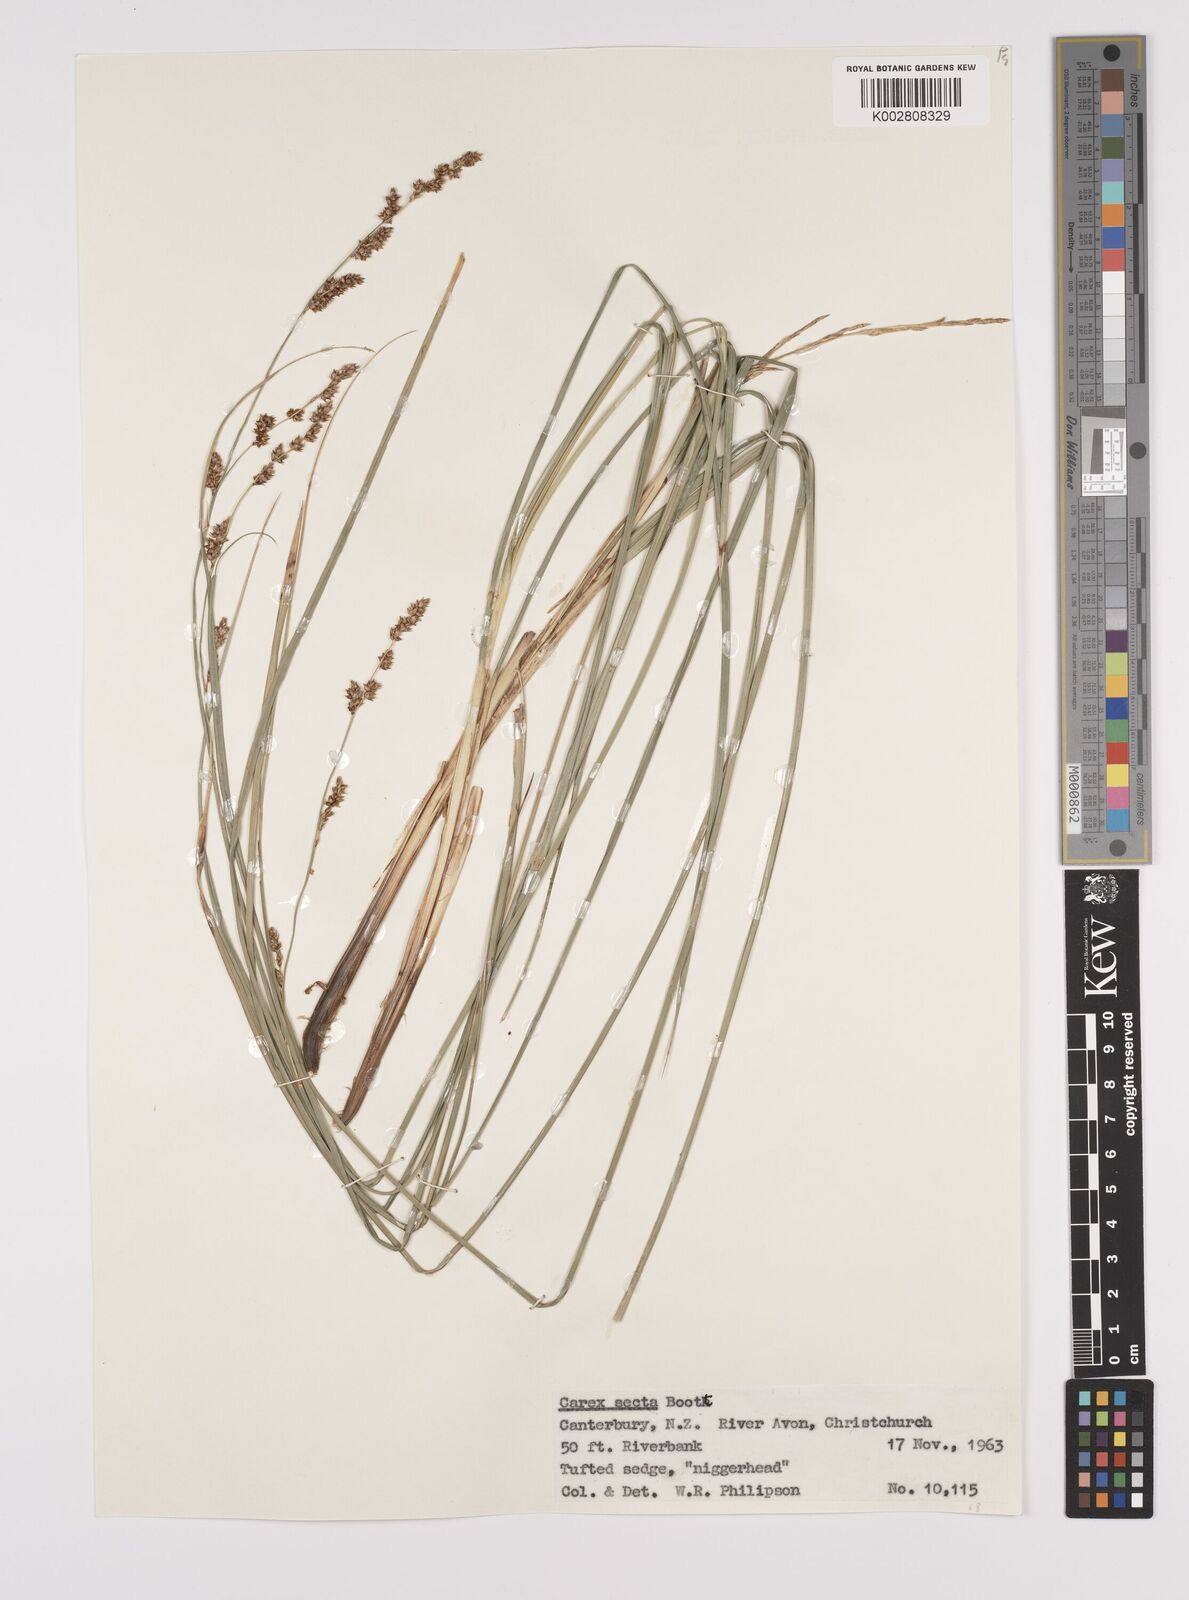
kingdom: Plantae
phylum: Tracheophyta
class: Liliopsida
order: Poales
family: Cyperaceae
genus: Carex
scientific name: Carex appressa
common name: Tussock sedge
